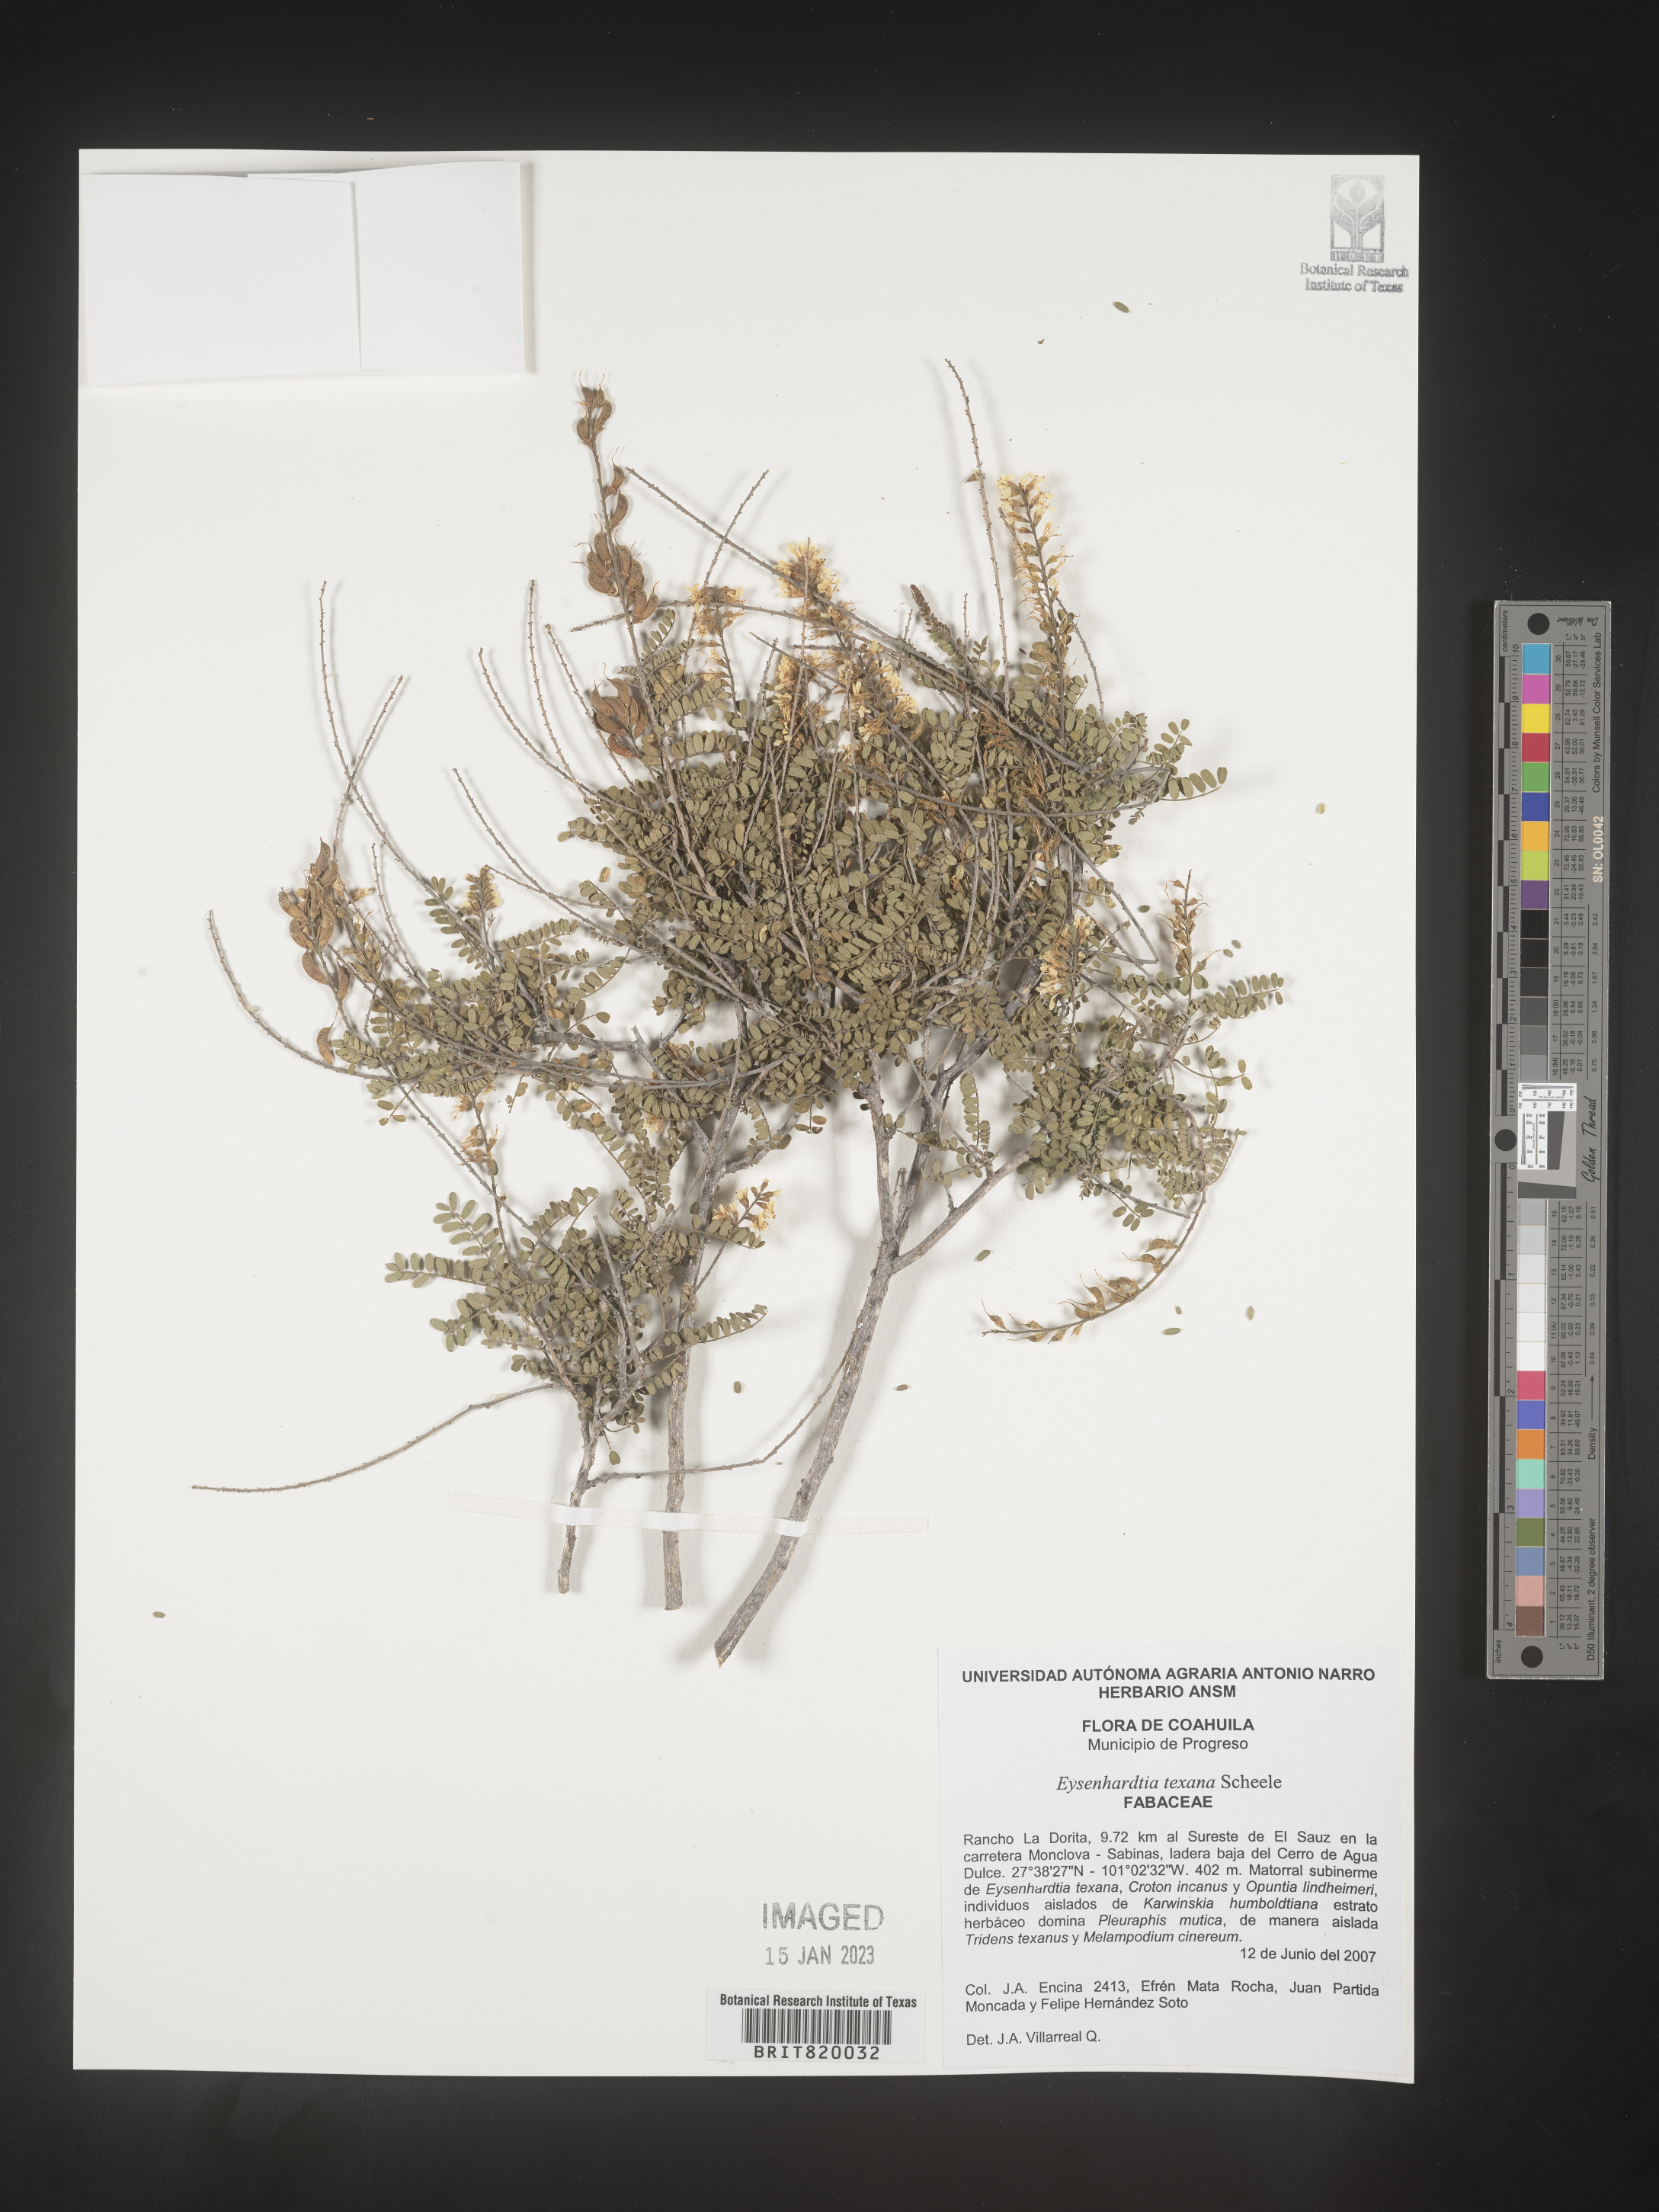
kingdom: Plantae
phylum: Tracheophyta
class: Magnoliopsida
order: Fabales
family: Fabaceae
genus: Eysenhardtia
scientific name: Eysenhardtia
